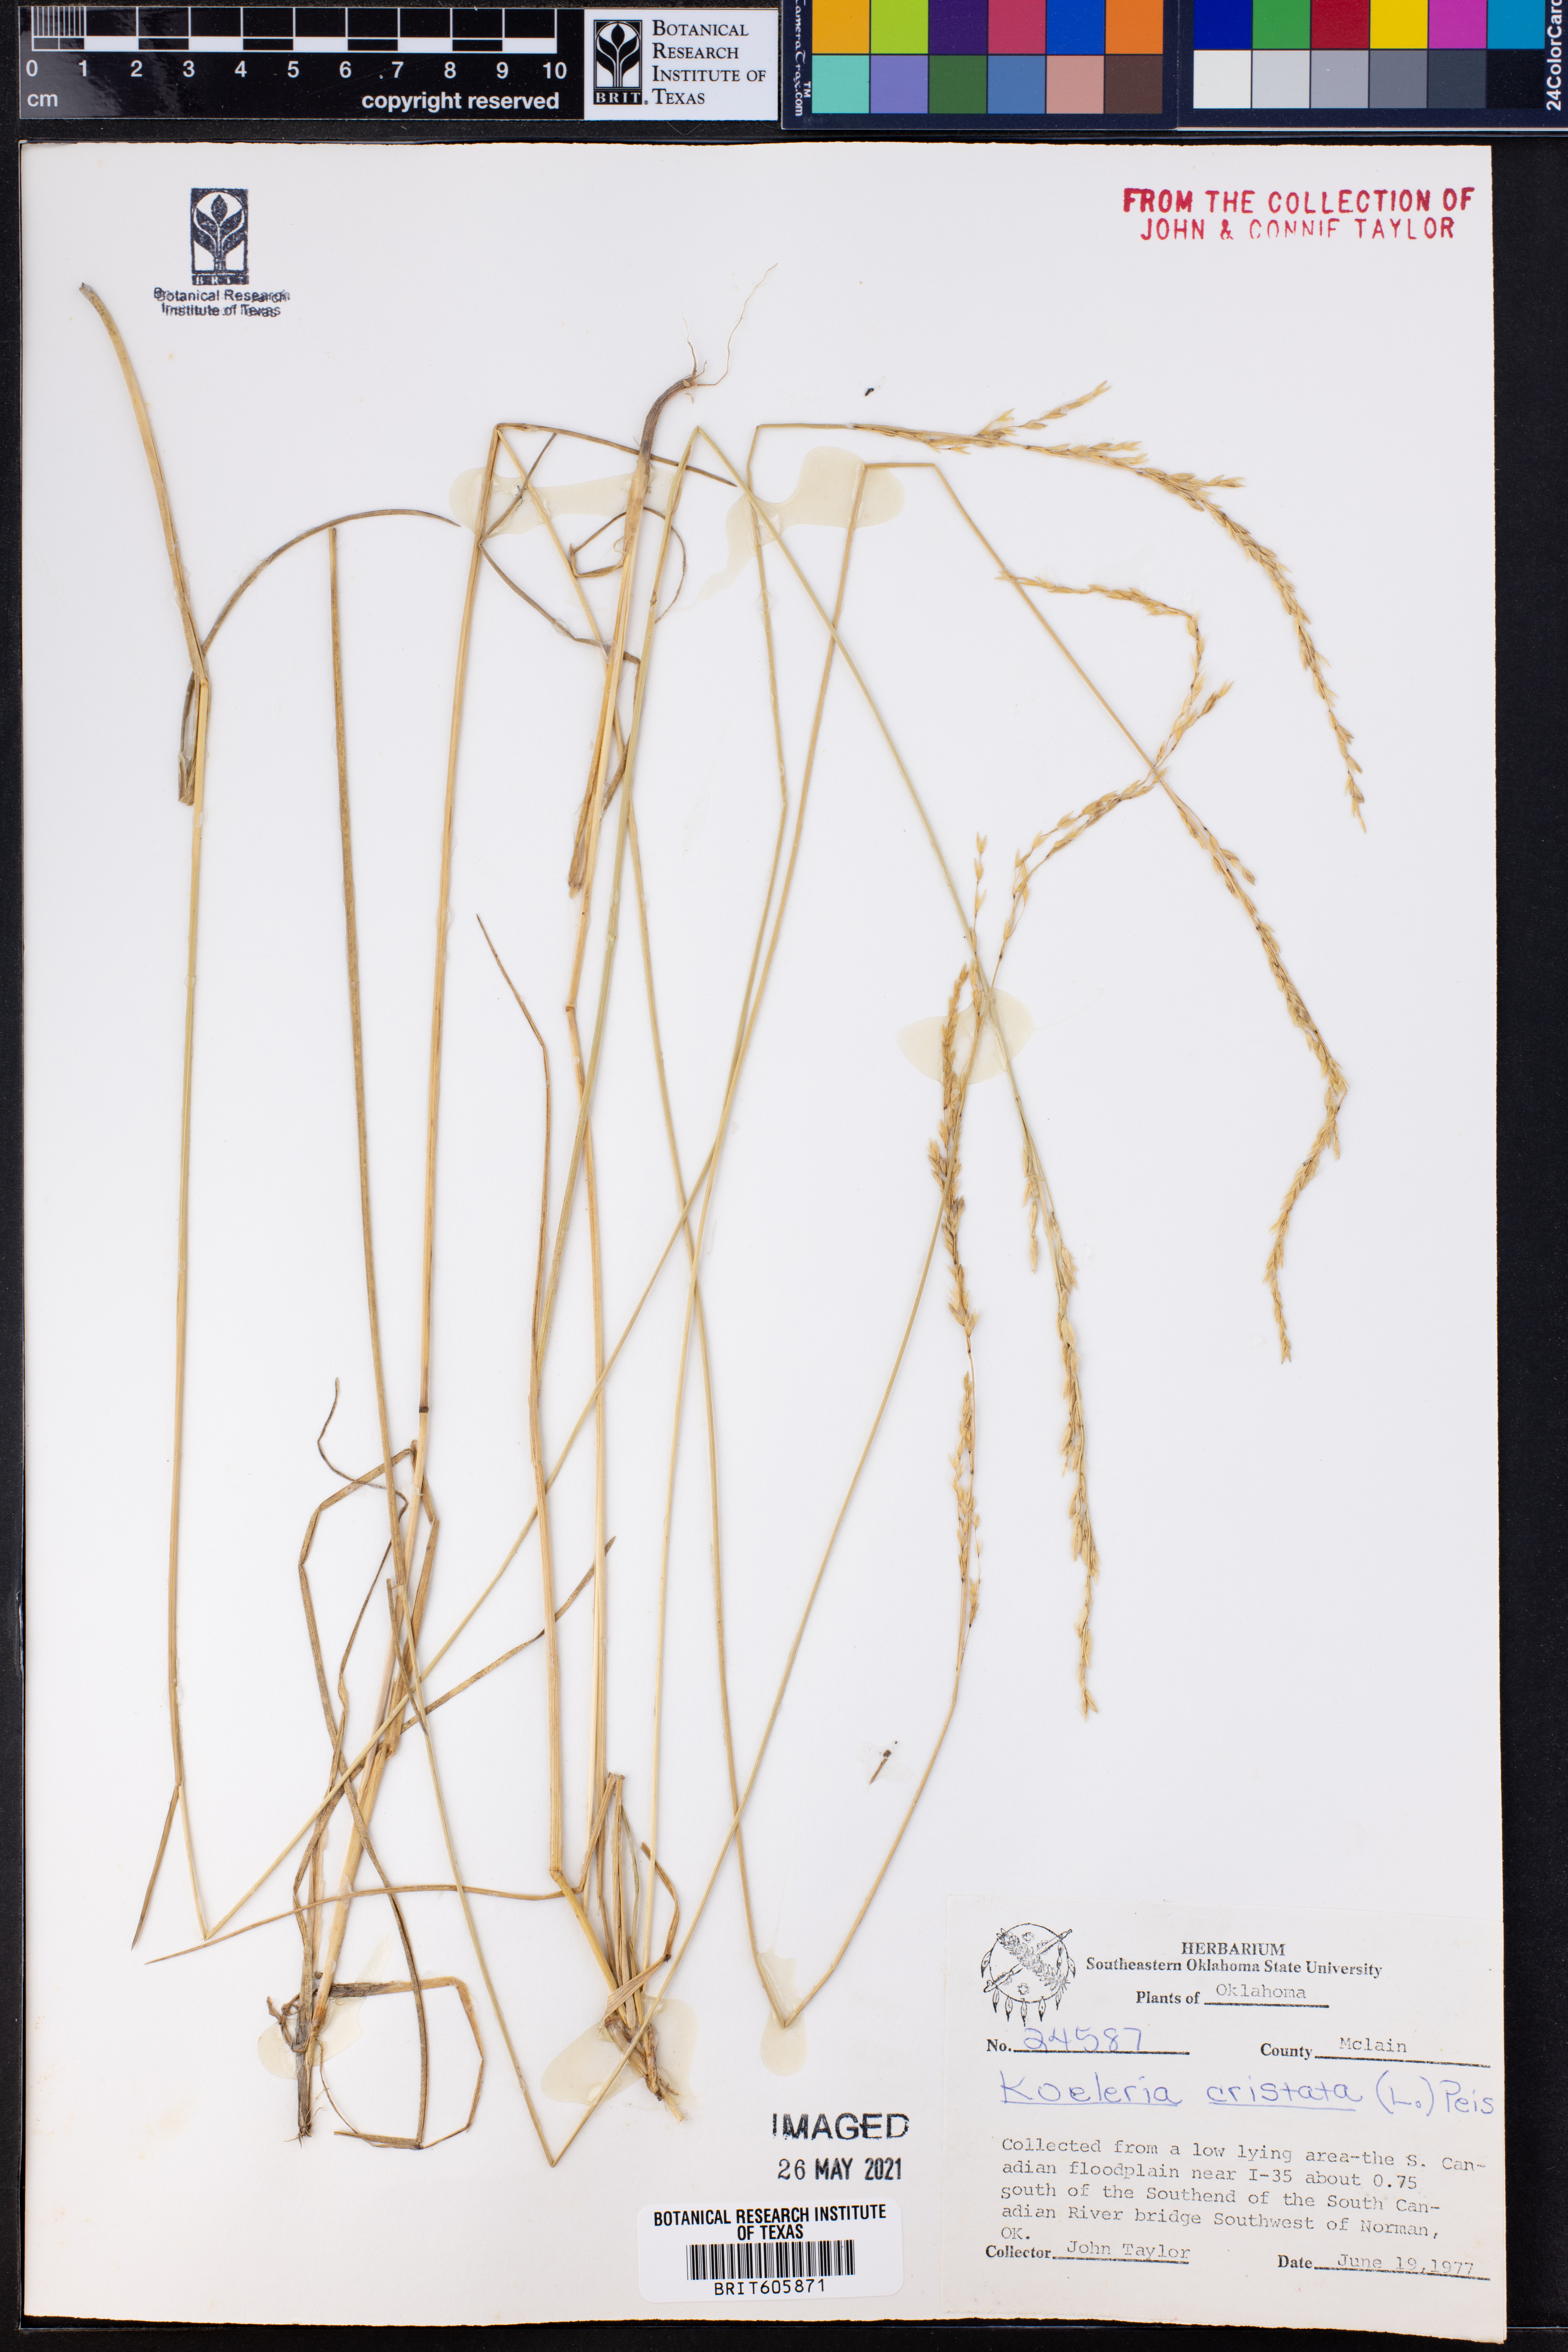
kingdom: Plantae
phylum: Tracheophyta
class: Liliopsida
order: Poales
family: Poaceae
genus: Koeleria
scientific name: Koeleria cristata
